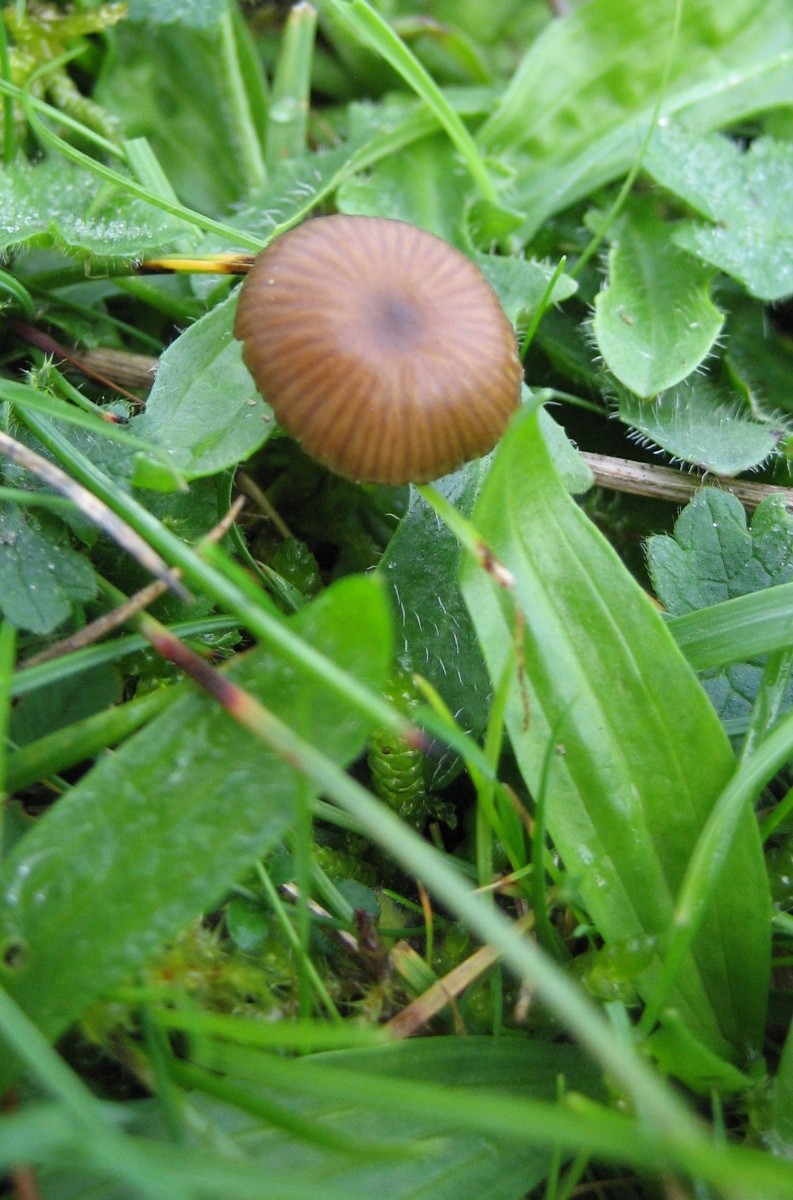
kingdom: Fungi
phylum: Basidiomycota
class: Agaricomycetes
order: Agaricales
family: Entolomataceae
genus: Entoloma
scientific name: Entoloma
